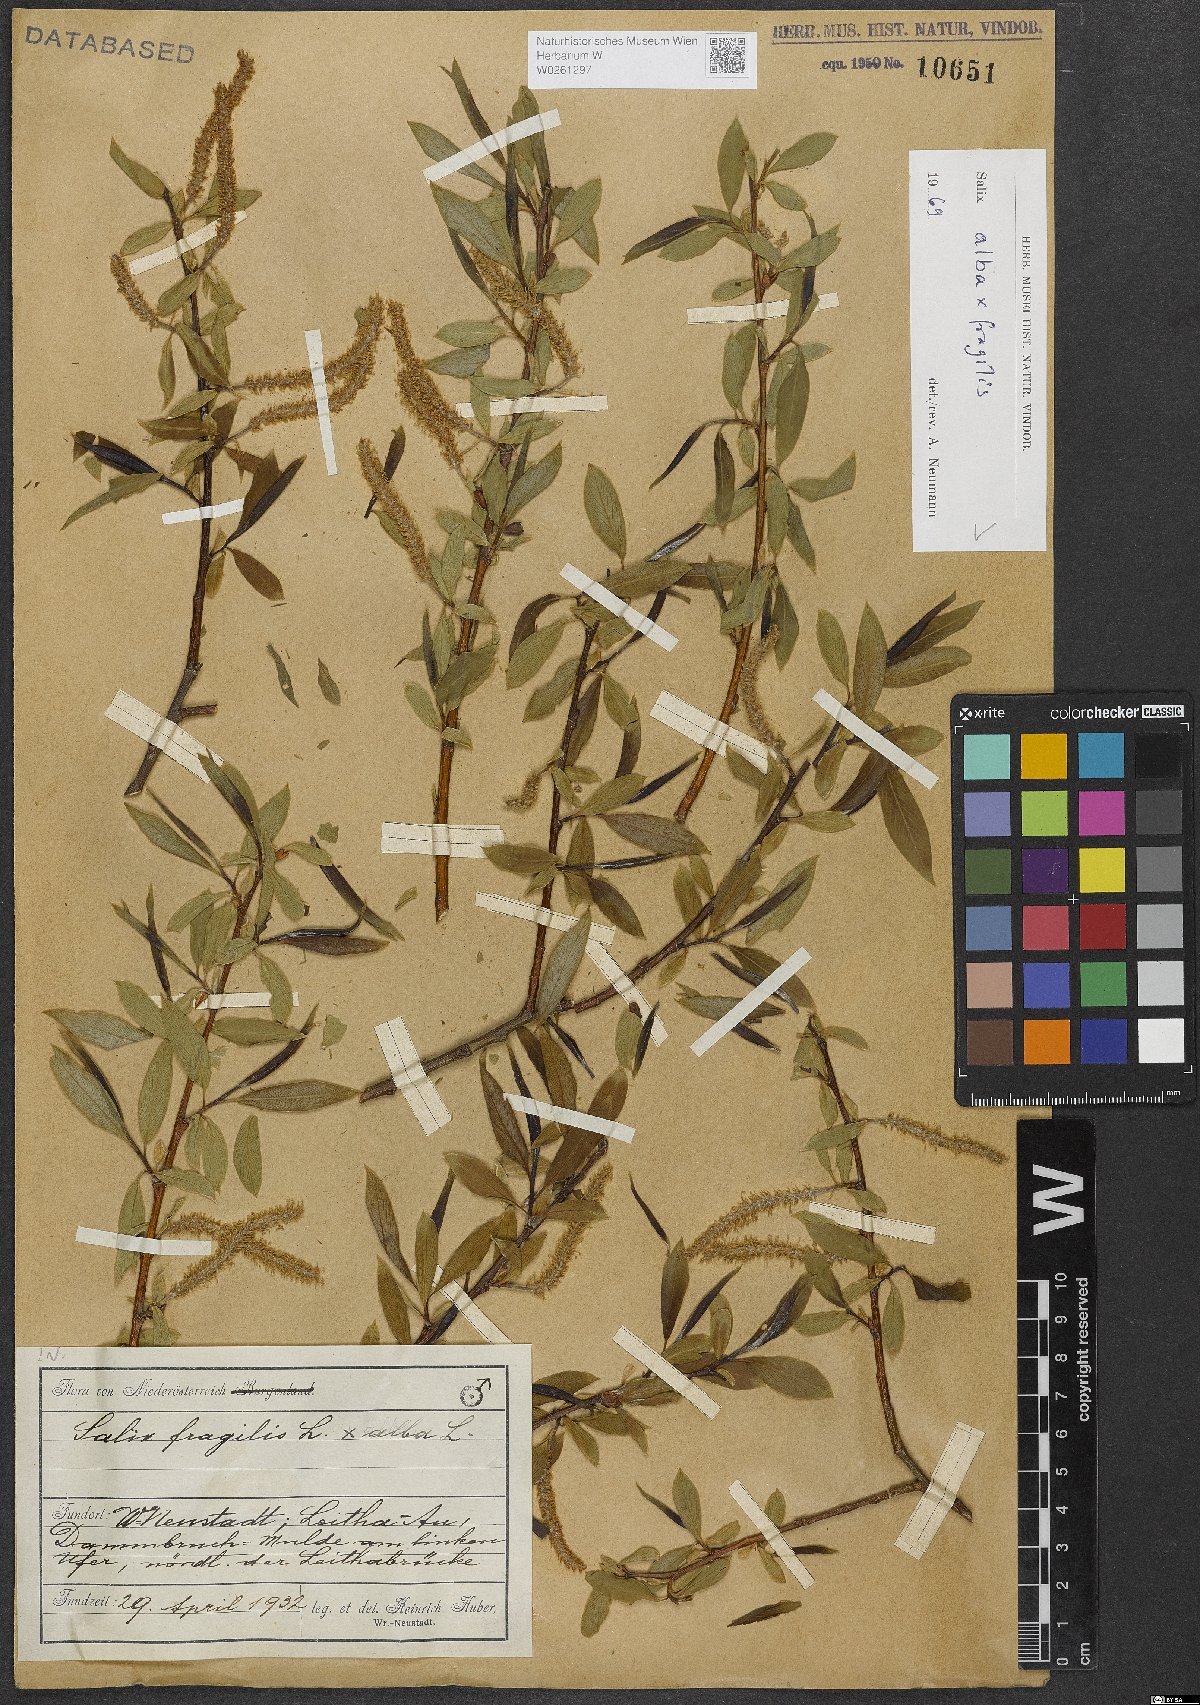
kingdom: Plantae
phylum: Tracheophyta
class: Magnoliopsida
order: Malpighiales
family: Salicaceae
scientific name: Salicaceae
